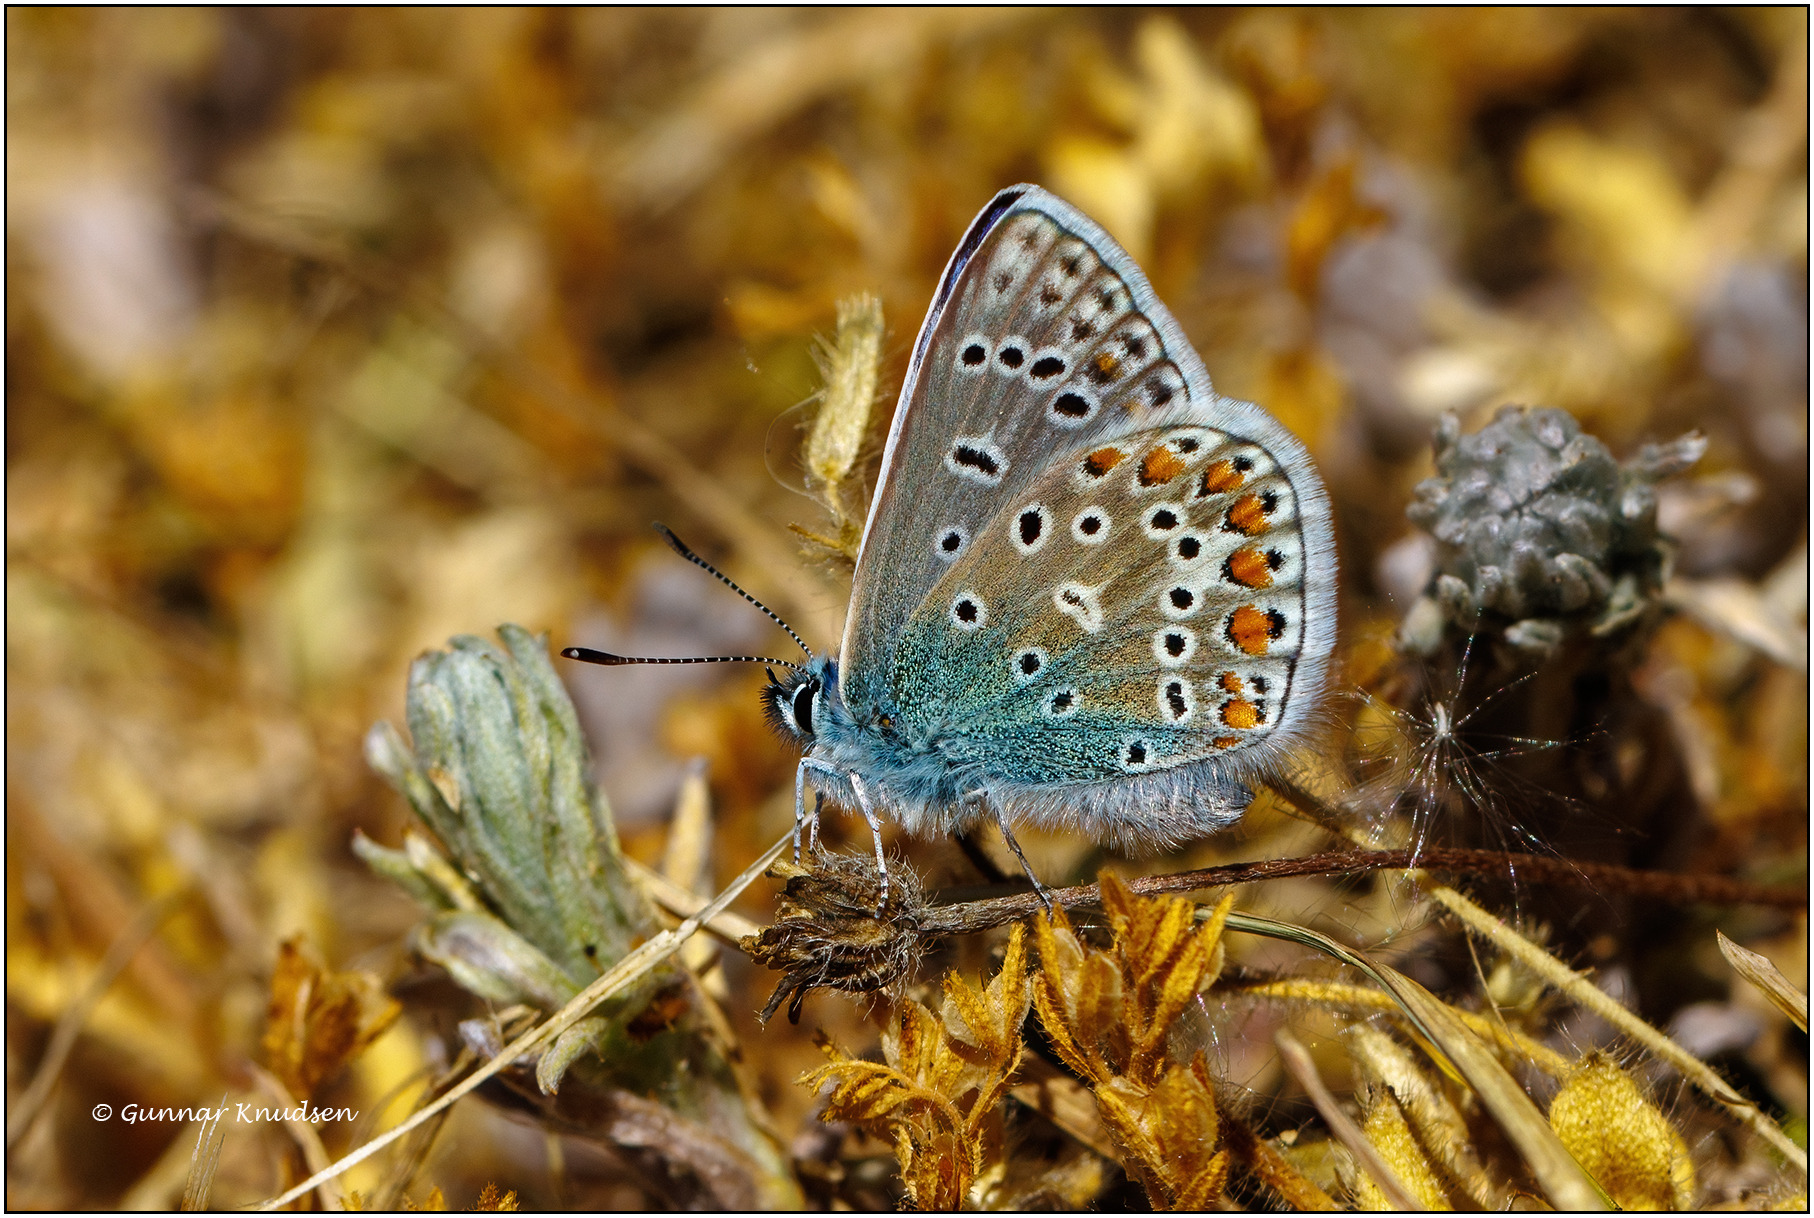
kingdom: Animalia
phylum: Arthropoda
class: Insecta
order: Lepidoptera
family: Lycaenidae
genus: Polyommatus
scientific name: Polyommatus icarus
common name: Almindelig blåfugl
